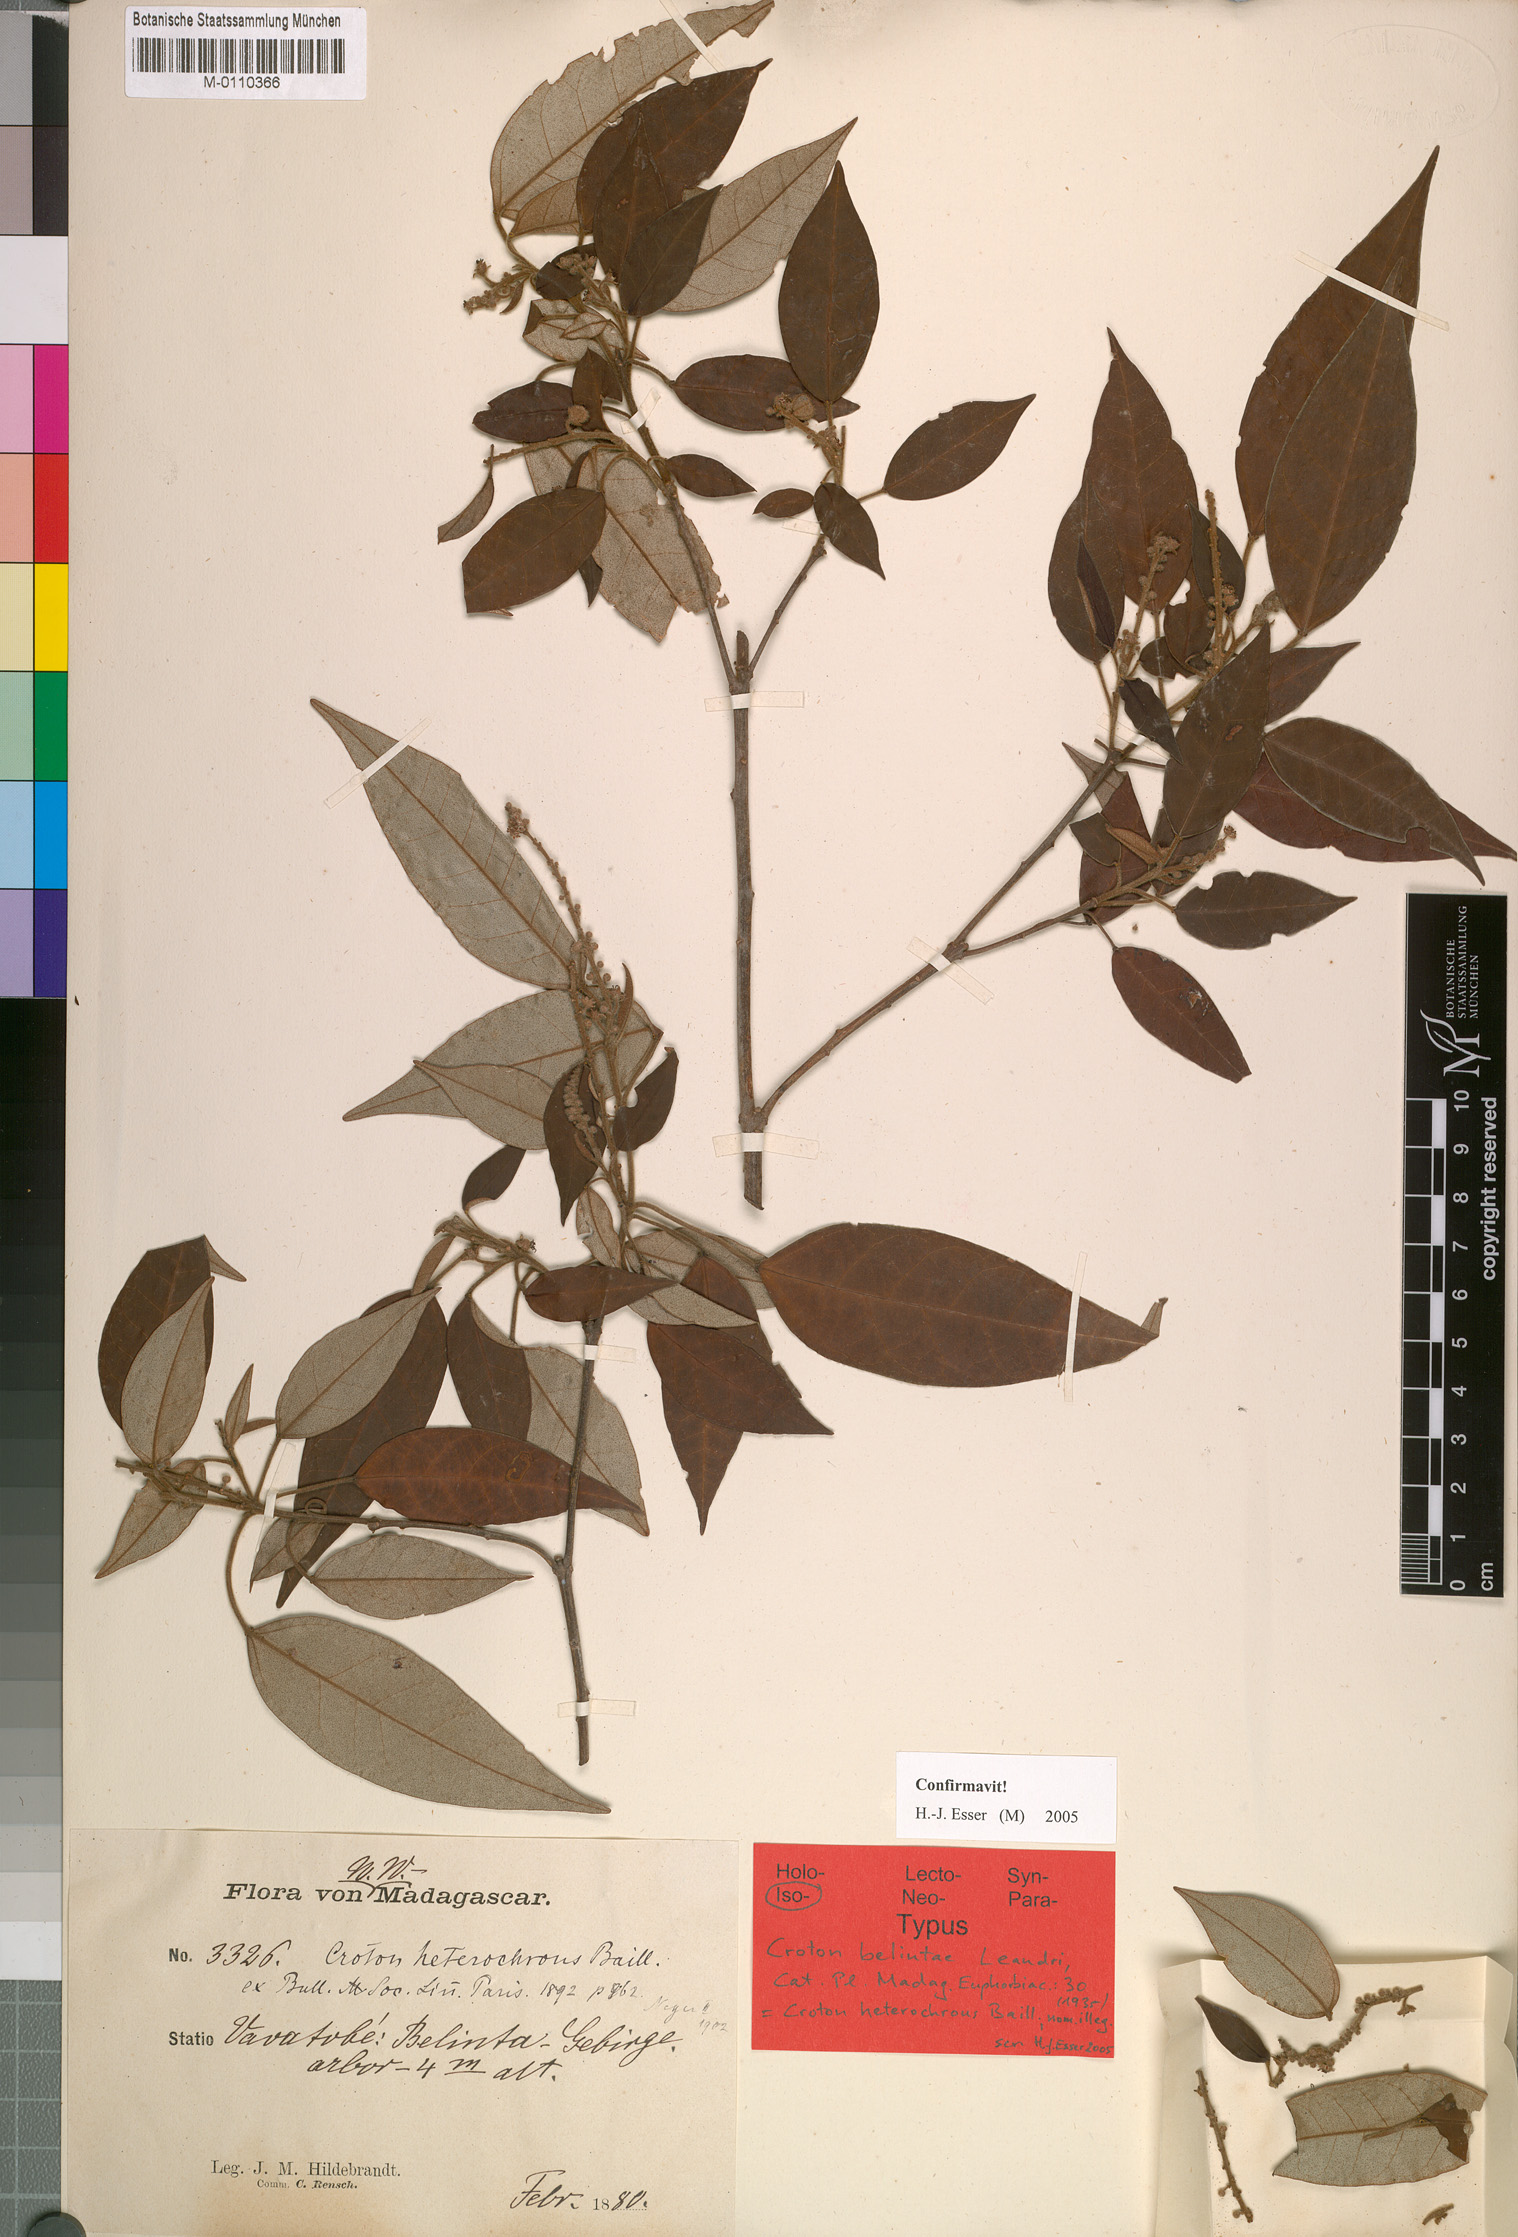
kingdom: Plantae
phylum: Tracheophyta
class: Magnoliopsida
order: Malpighiales
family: Euphorbiaceae
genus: Croton
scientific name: Croton hildebrandtii
